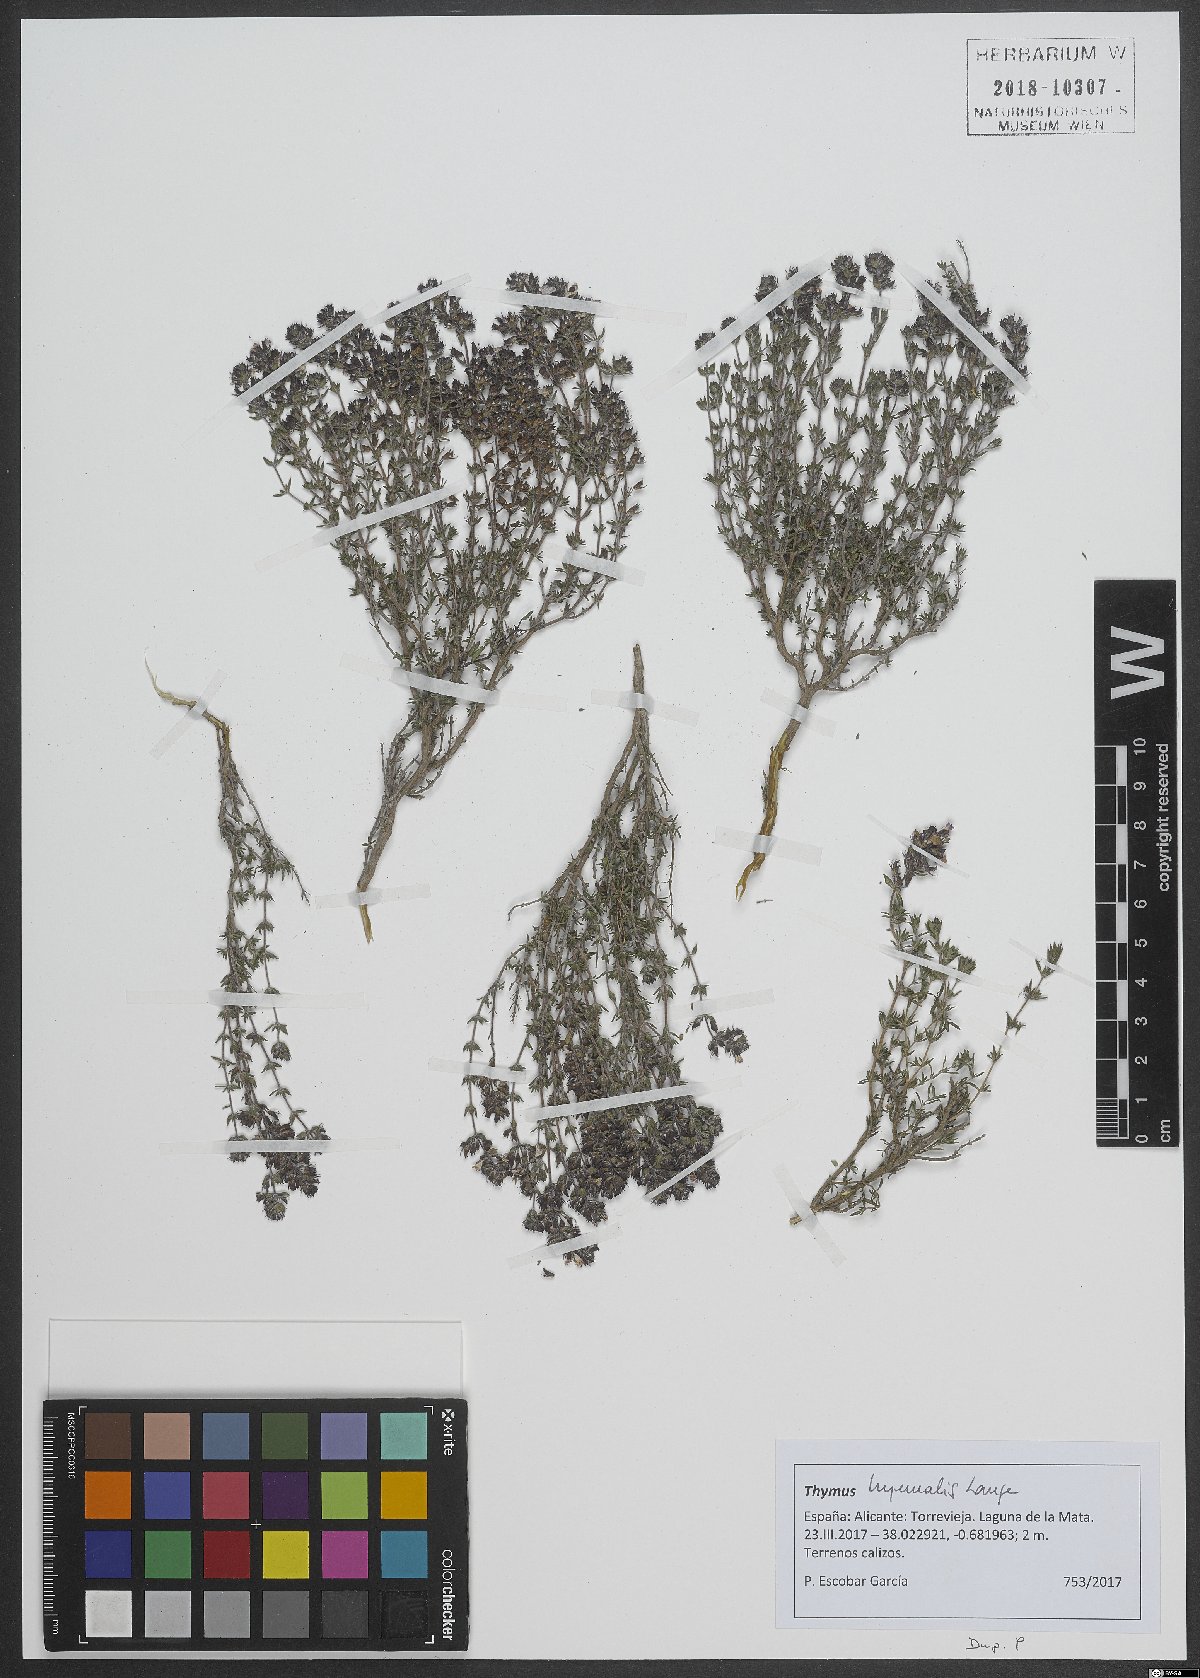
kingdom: Plantae
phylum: Tracheophyta
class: Magnoliopsida
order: Lamiales
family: Lamiaceae
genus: Thymus
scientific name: Thymus hyemalis
